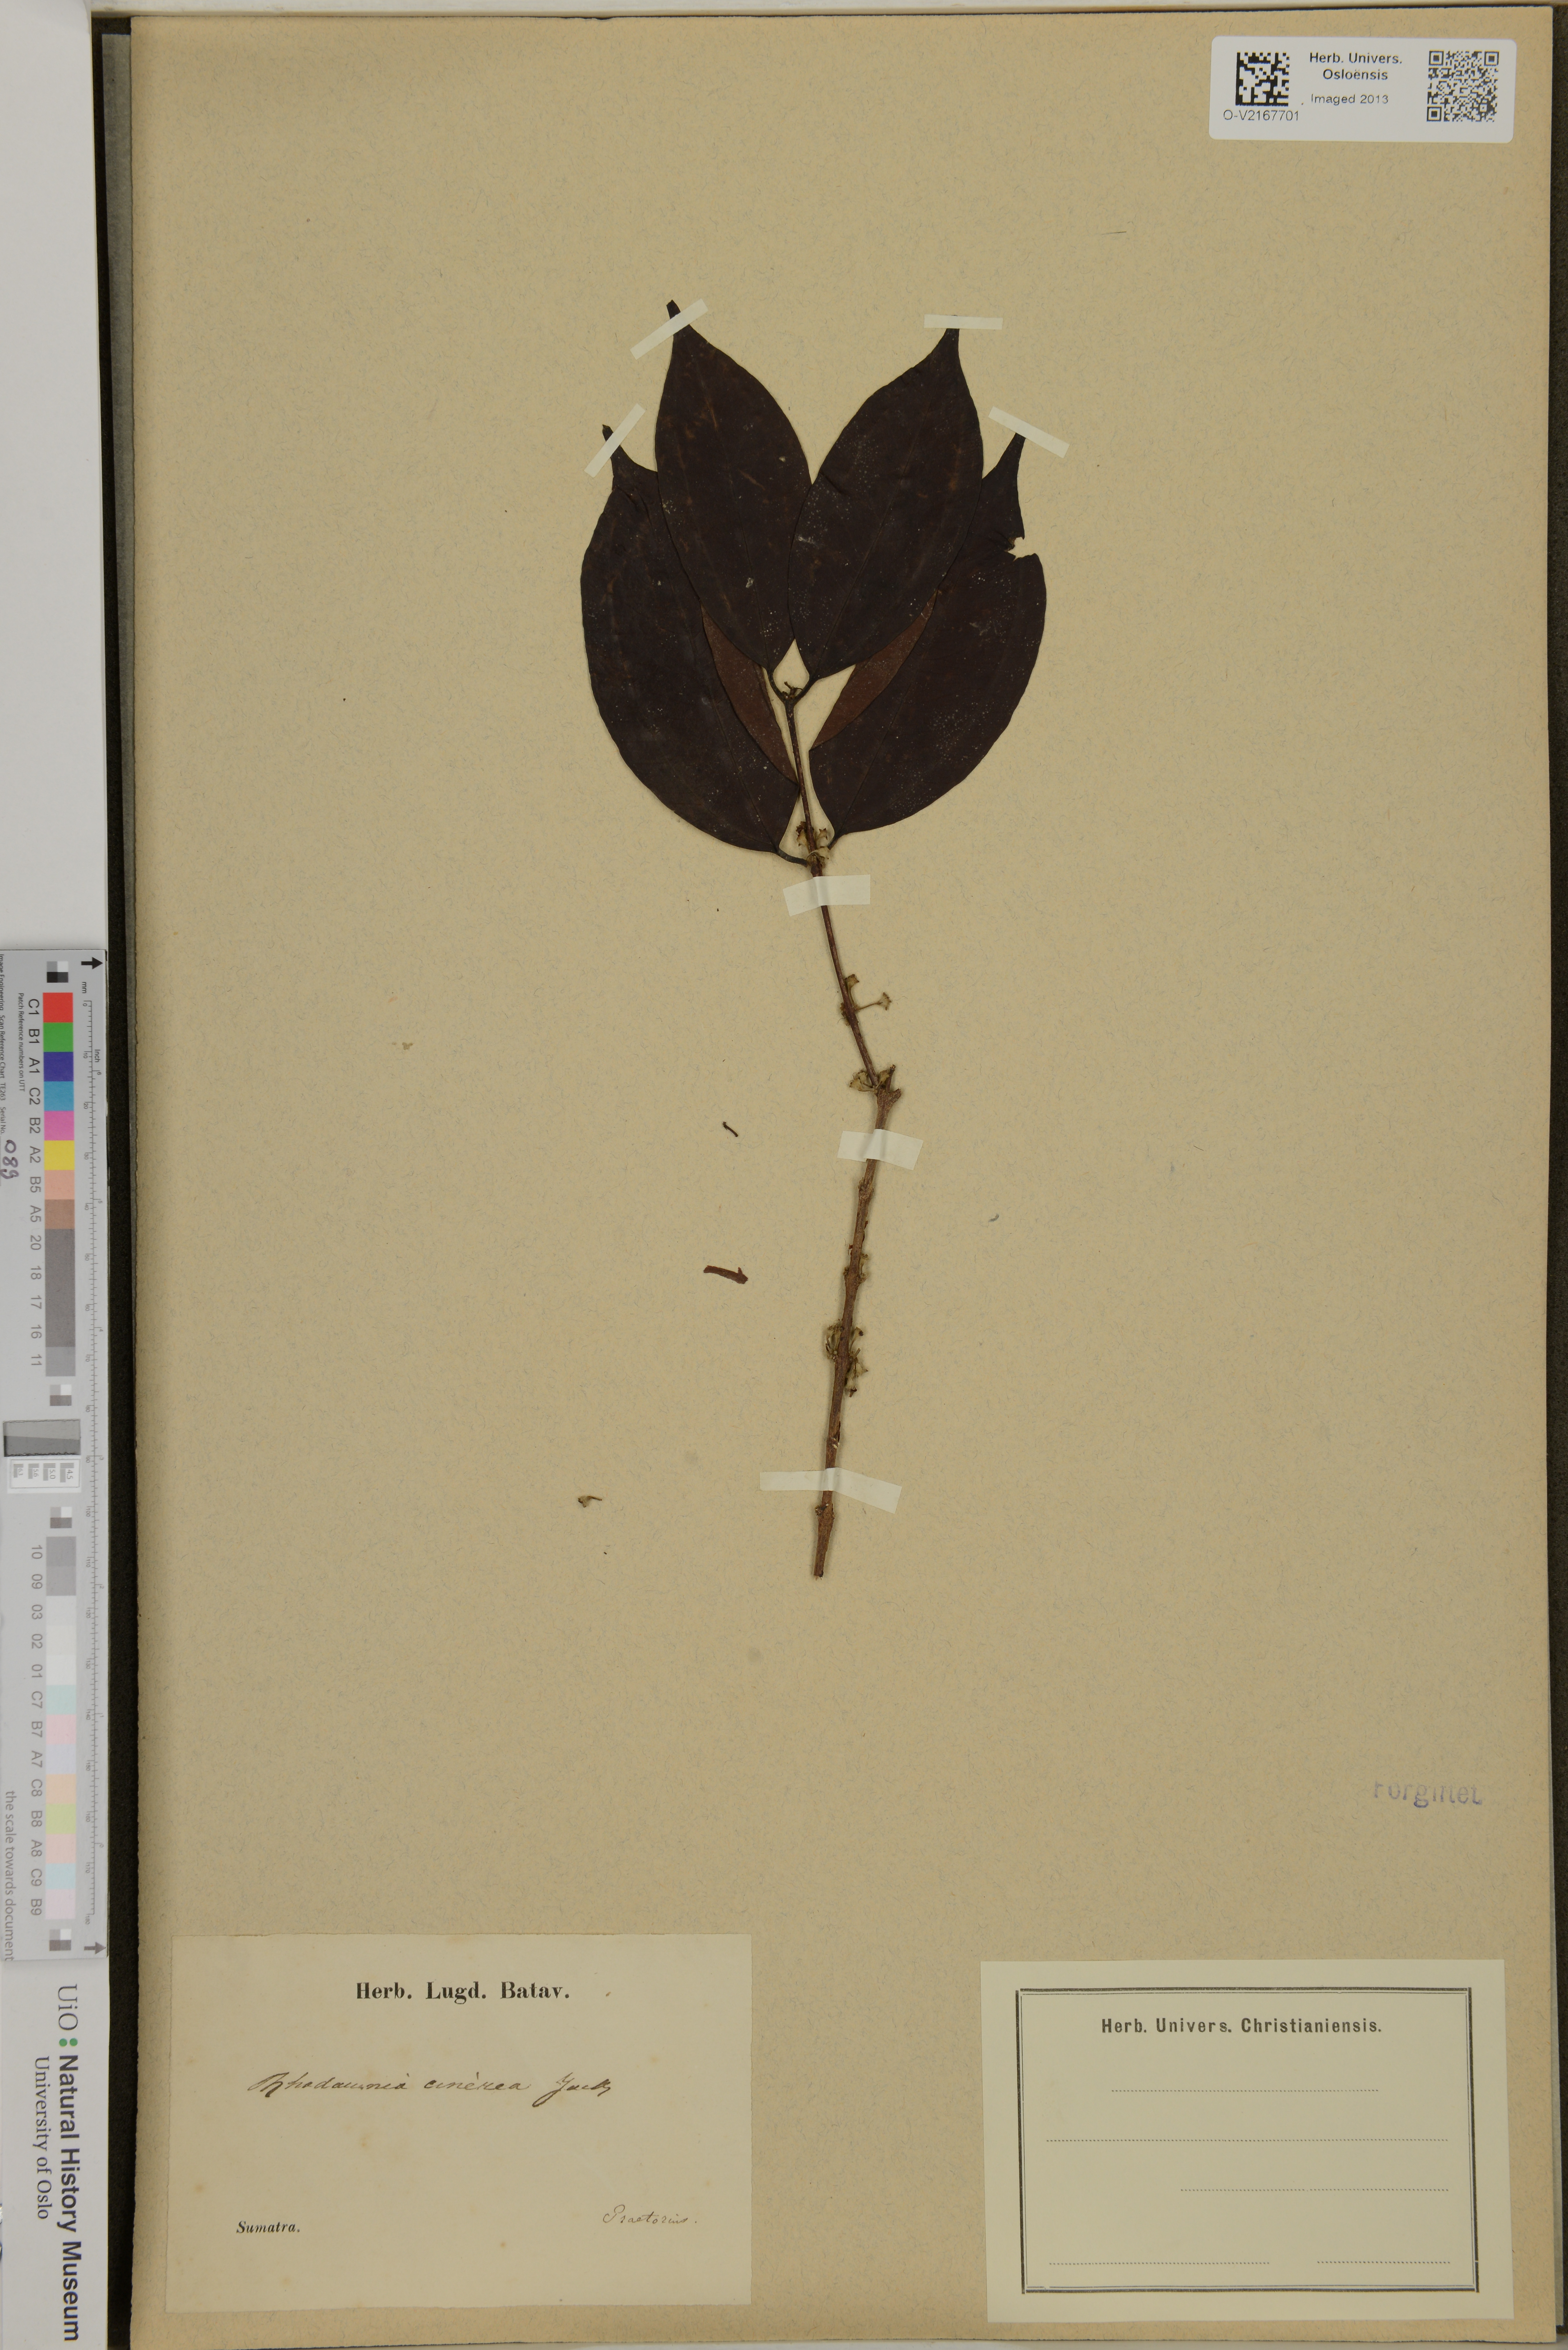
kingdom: Plantae
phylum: Tracheophyta
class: Magnoliopsida
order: Myrtales
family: Myrtaceae
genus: Rhodamnia
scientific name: Rhodamnia cinerea
